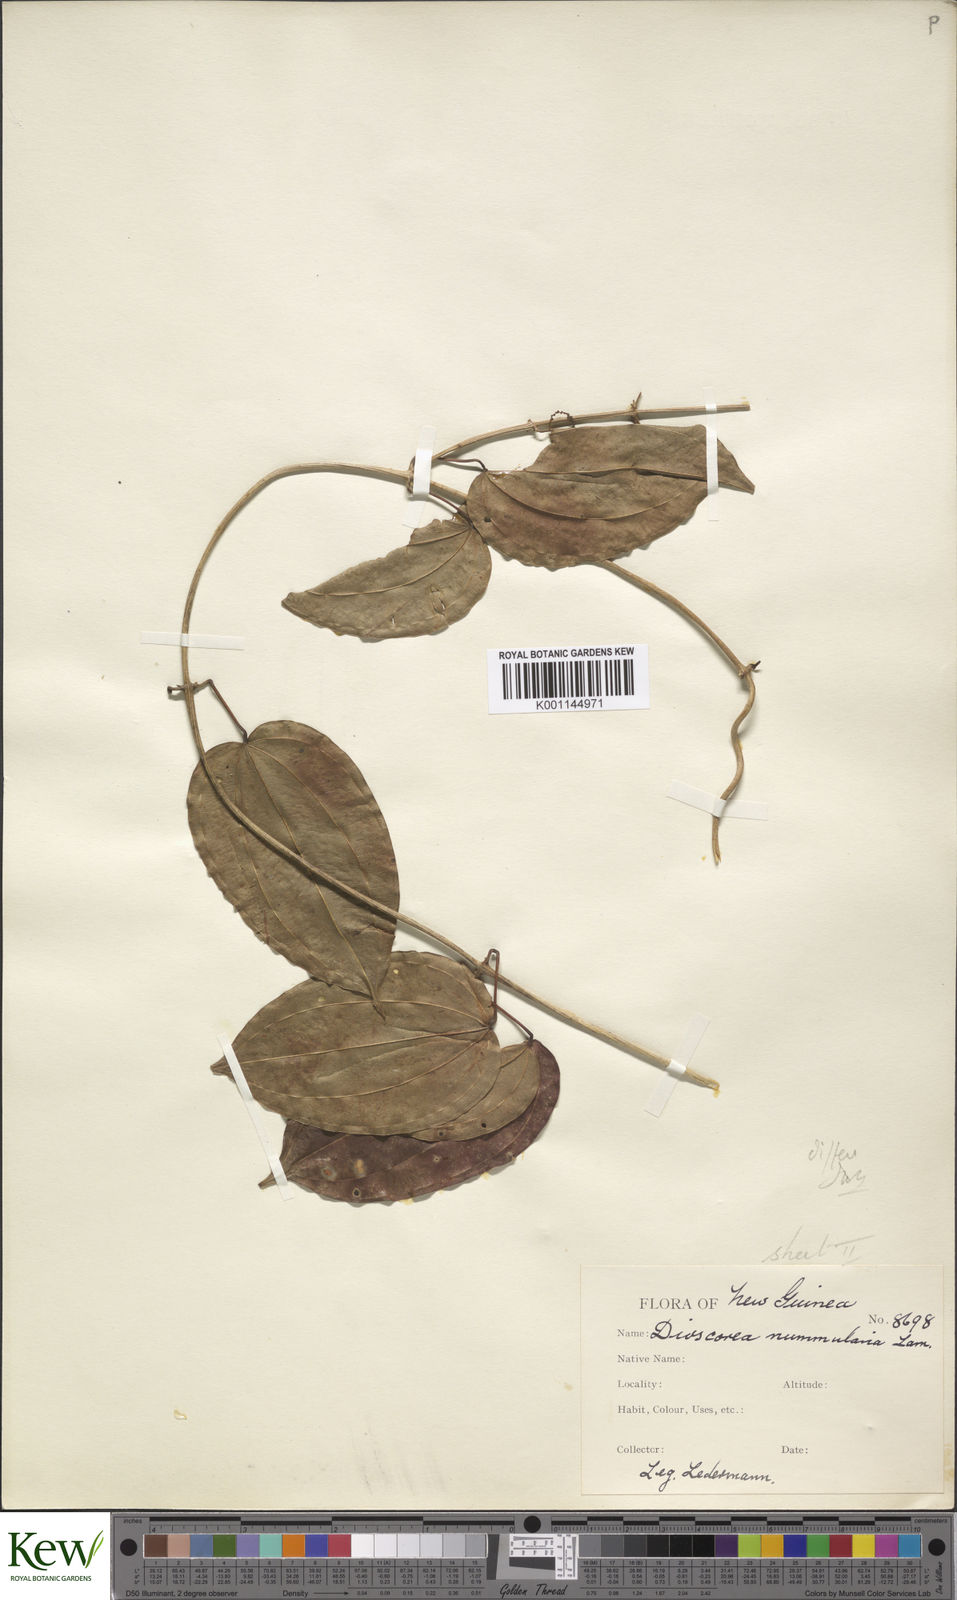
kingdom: Plantae
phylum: Tracheophyta
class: Liliopsida
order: Dioscoreales
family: Dioscoreaceae
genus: Dioscorea
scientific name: Dioscorea nummularia
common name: Pacific yam
